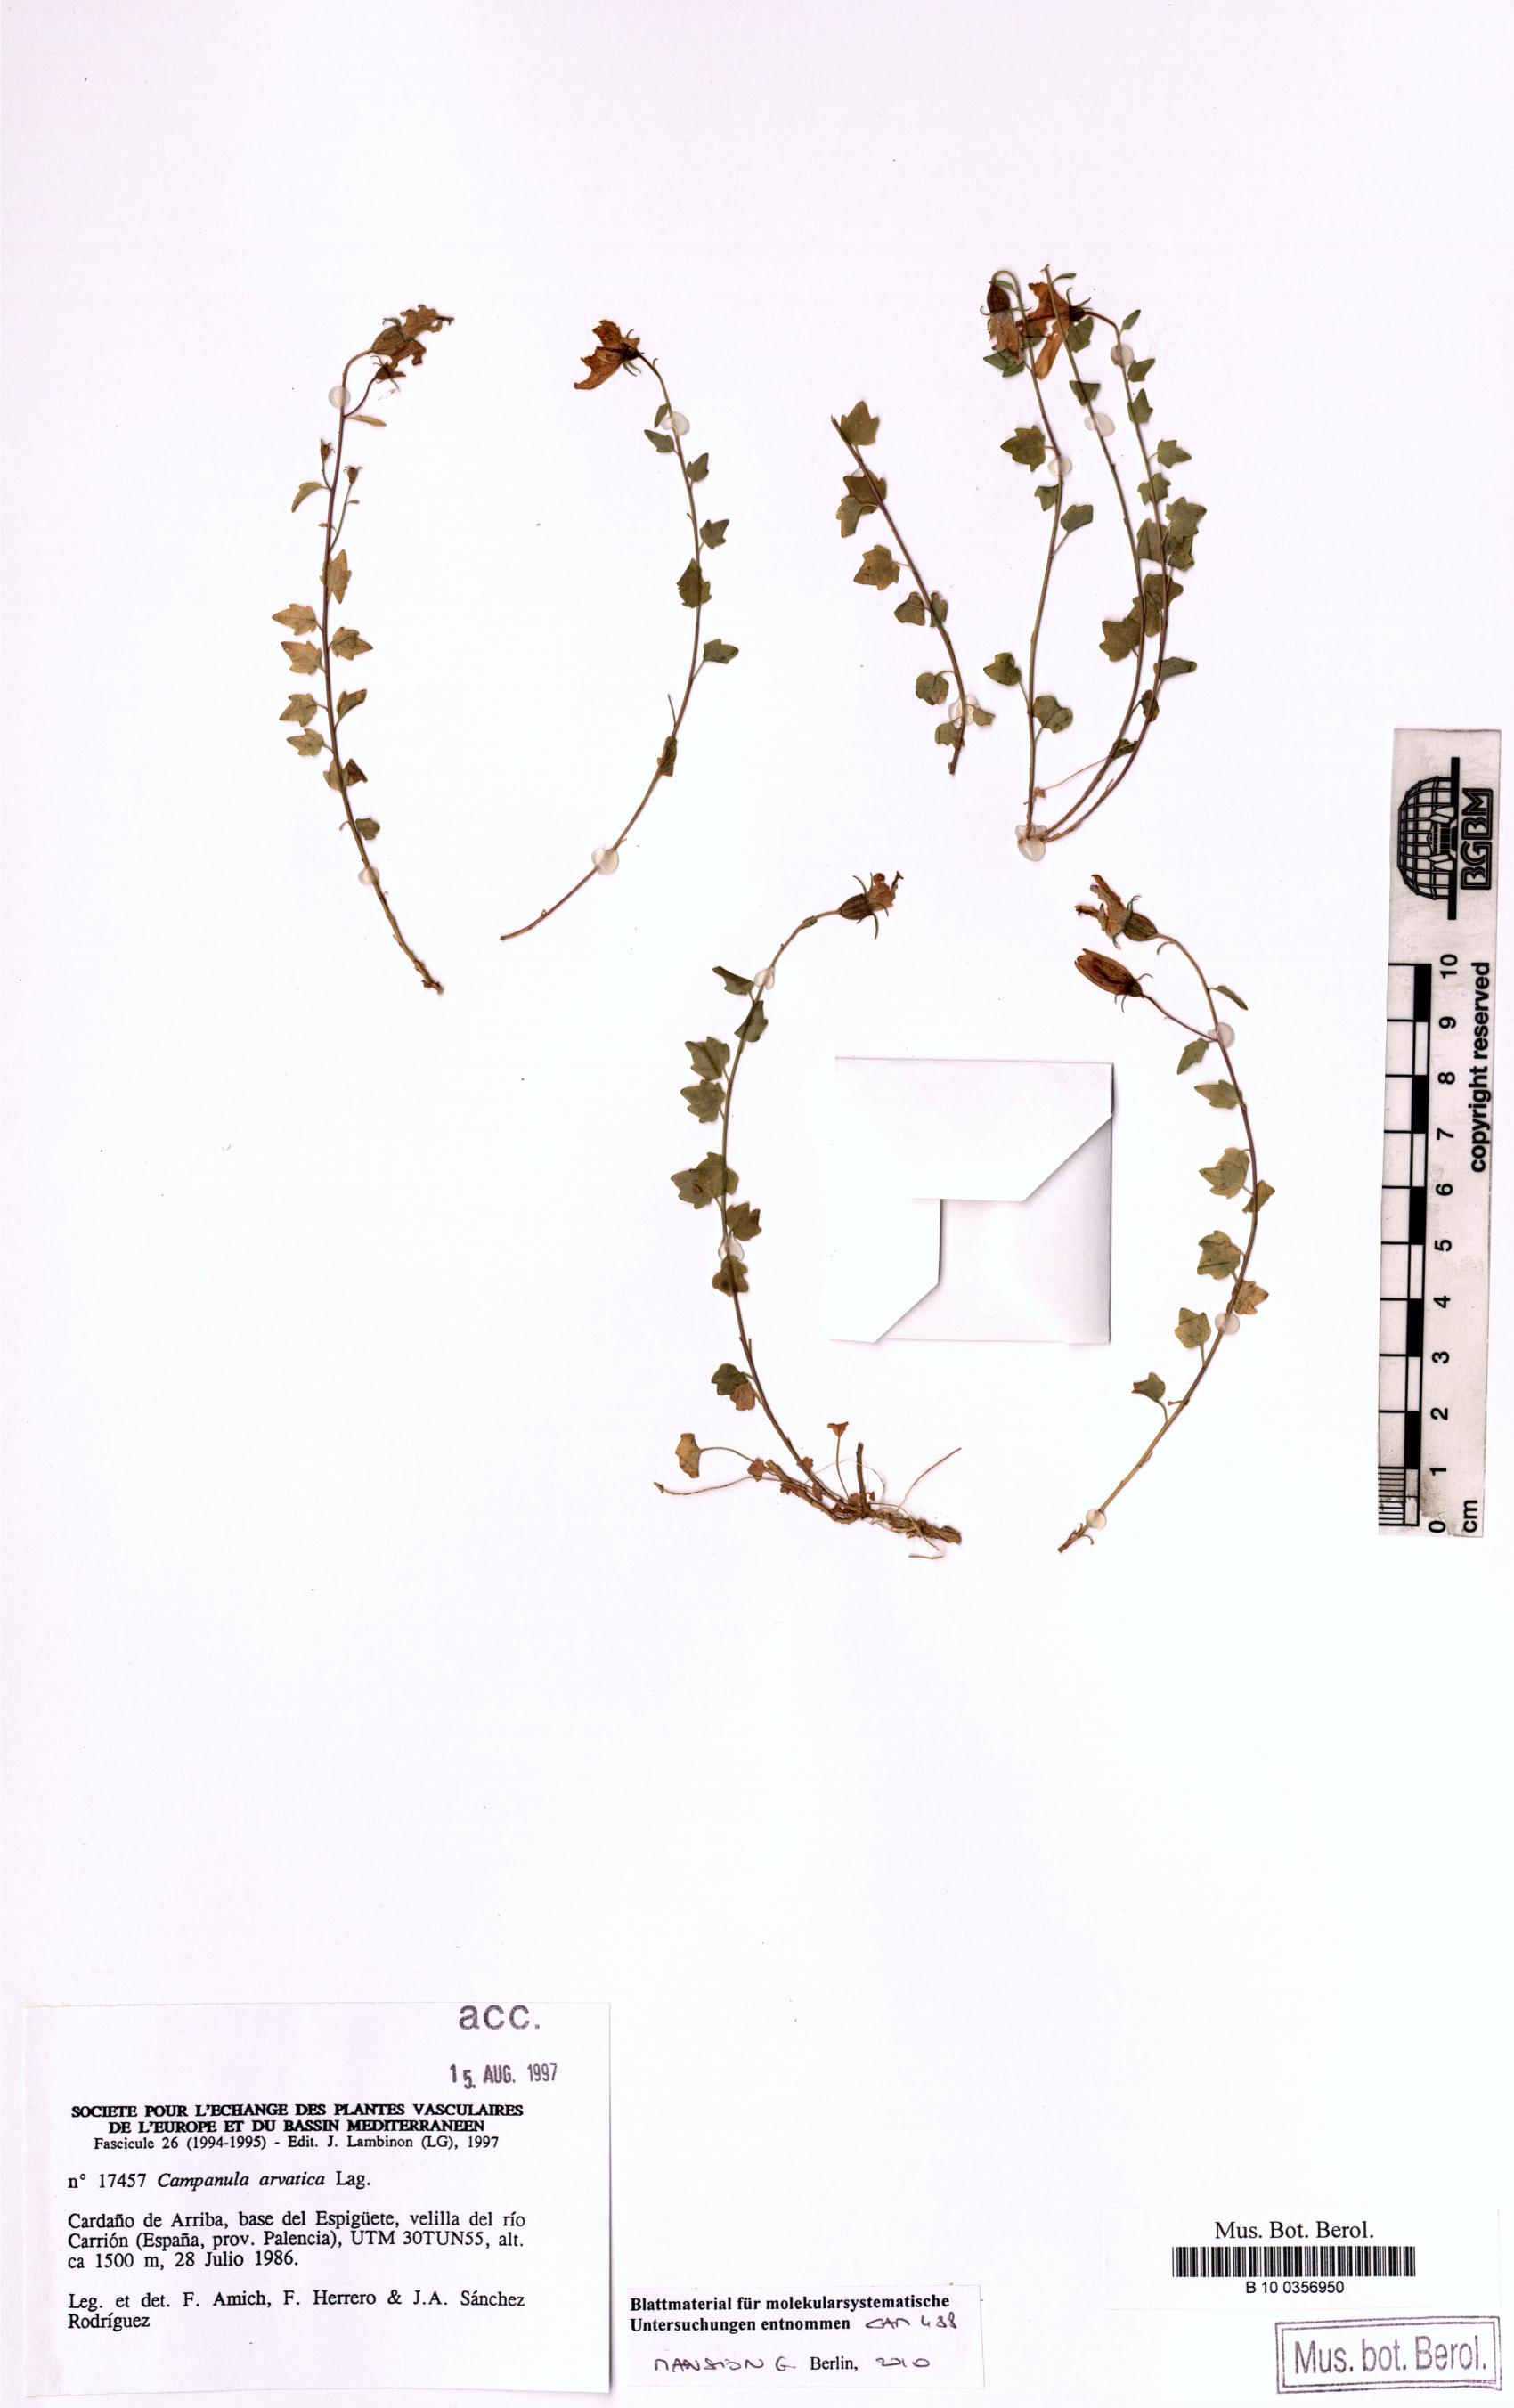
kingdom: Plantae
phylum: Tracheophyta
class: Magnoliopsida
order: Asterales
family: Campanulaceae
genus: Campanula
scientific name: Campanula arvatica
